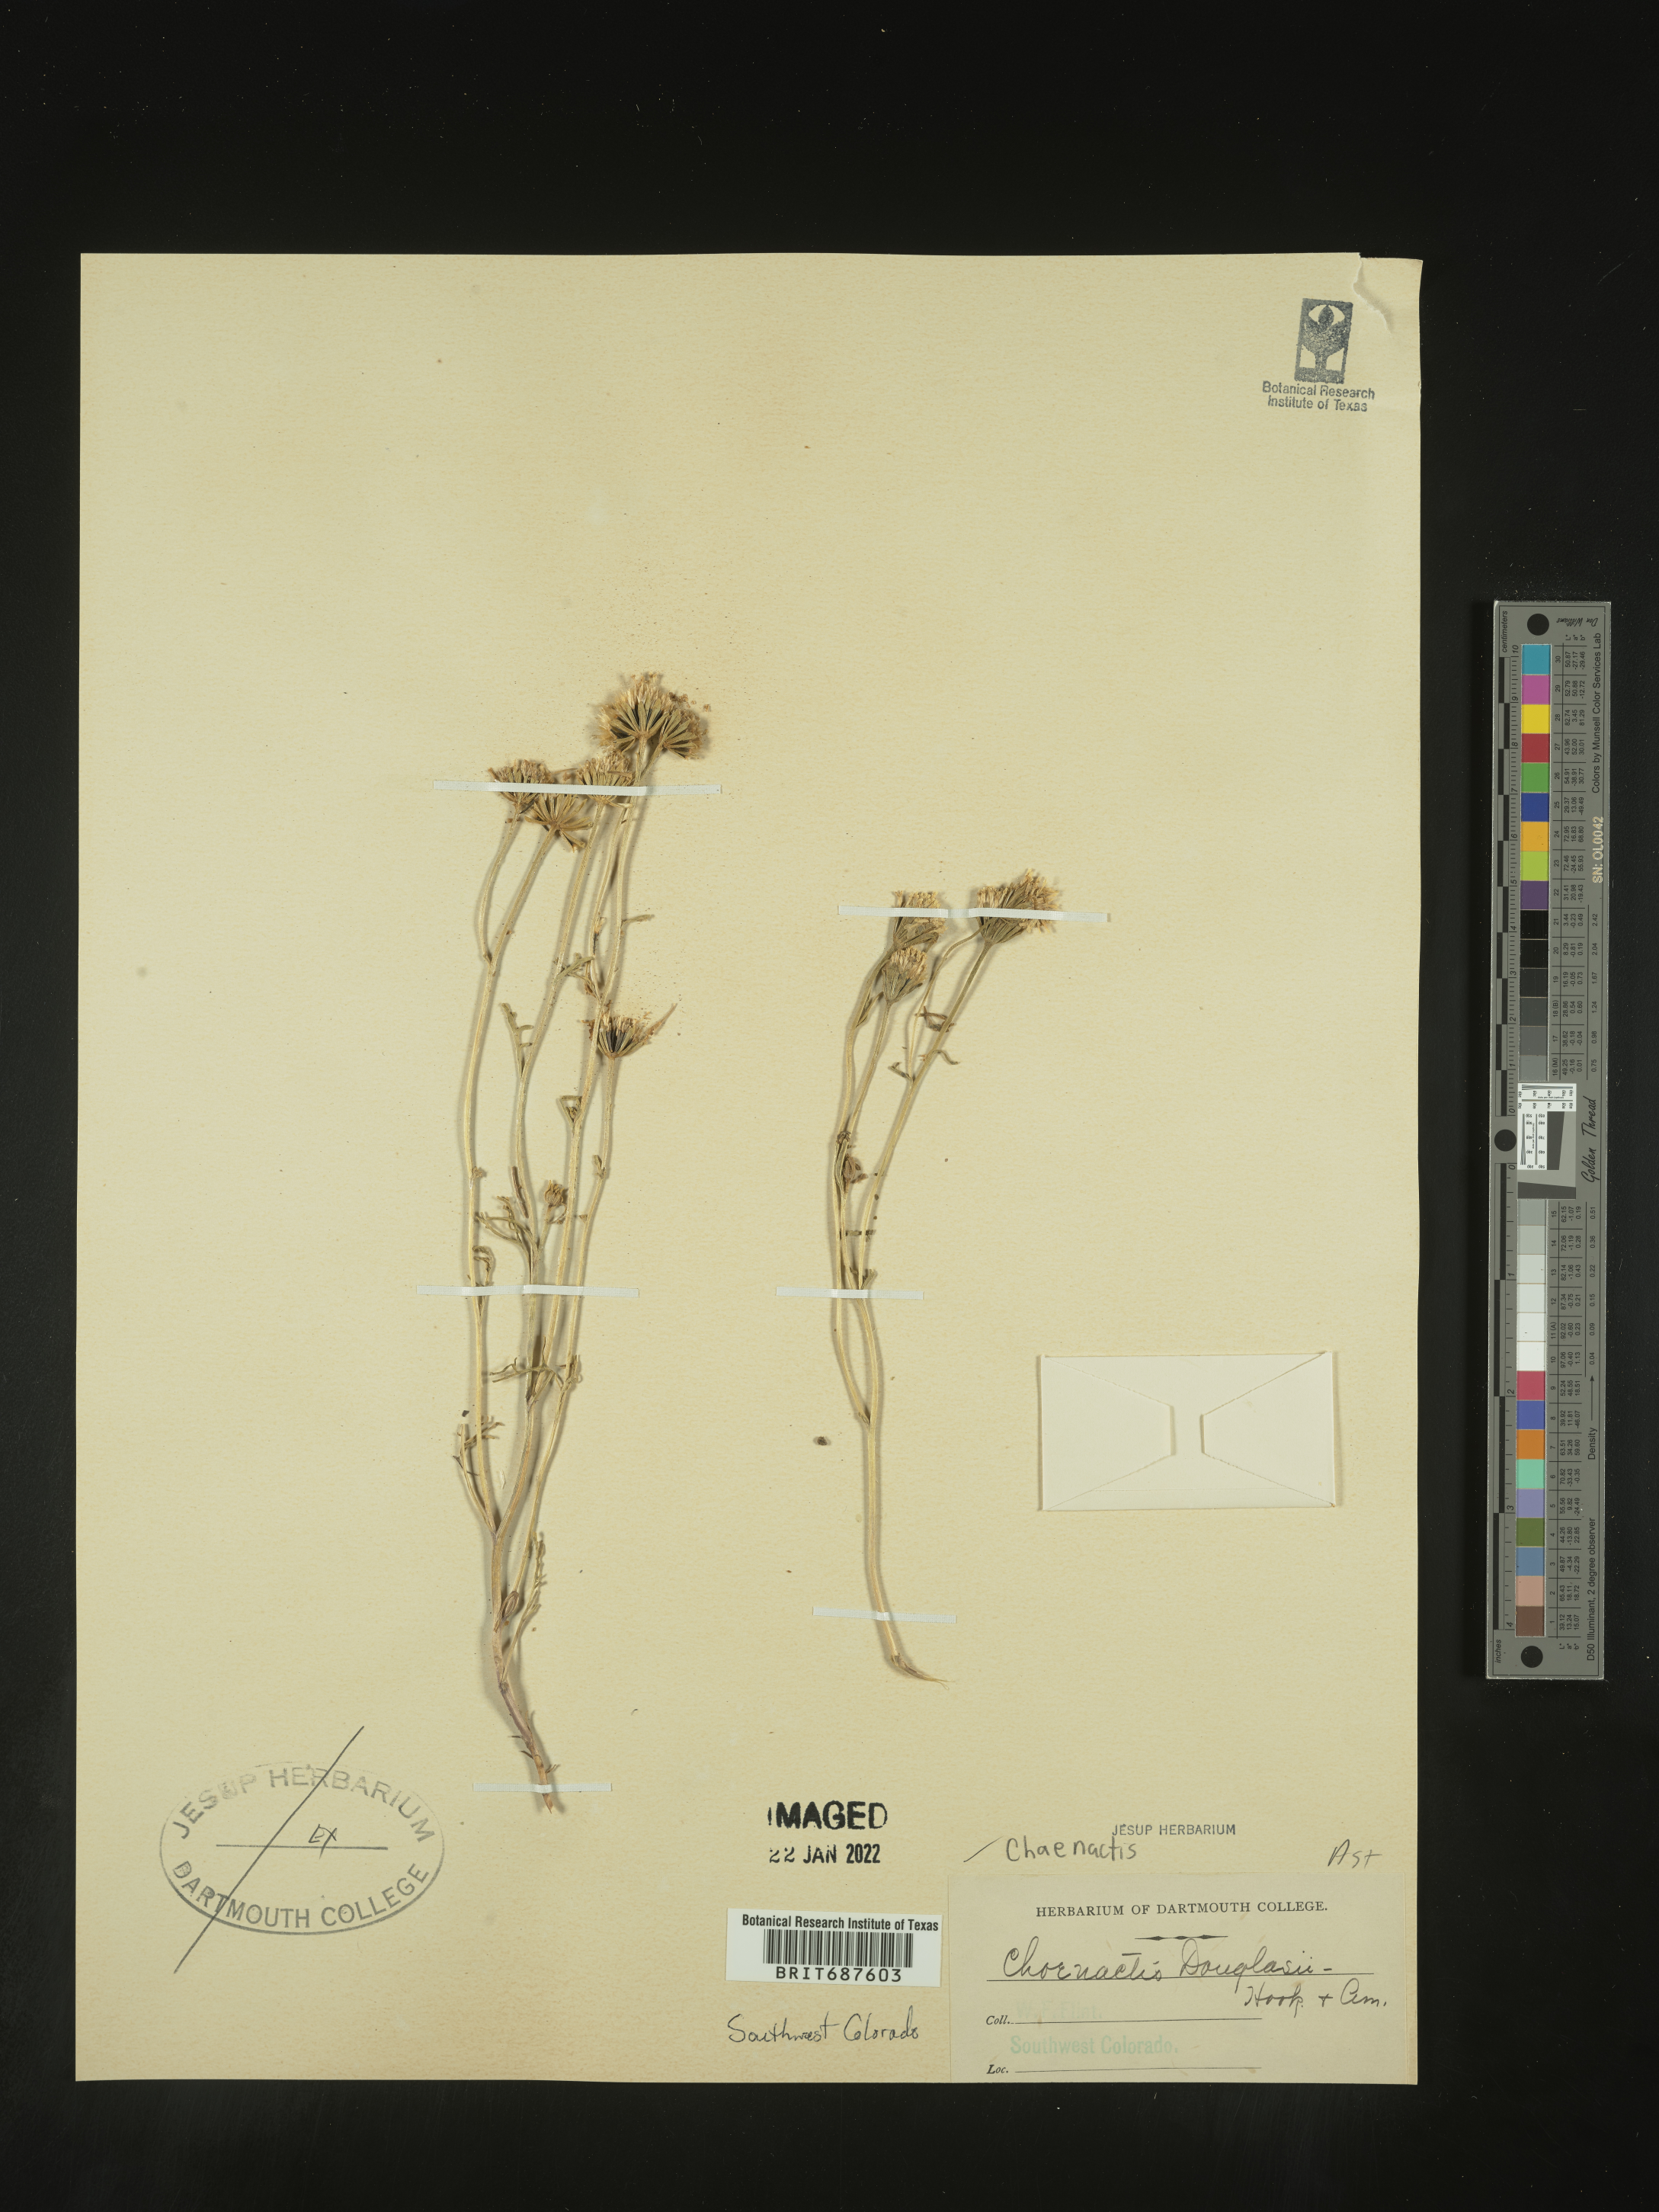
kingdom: Plantae
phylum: Tracheophyta
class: Magnoliopsida
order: Asterales
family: Asteraceae
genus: Chaenactis
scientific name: Chaenactis douglasii
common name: Hoary pincushion
